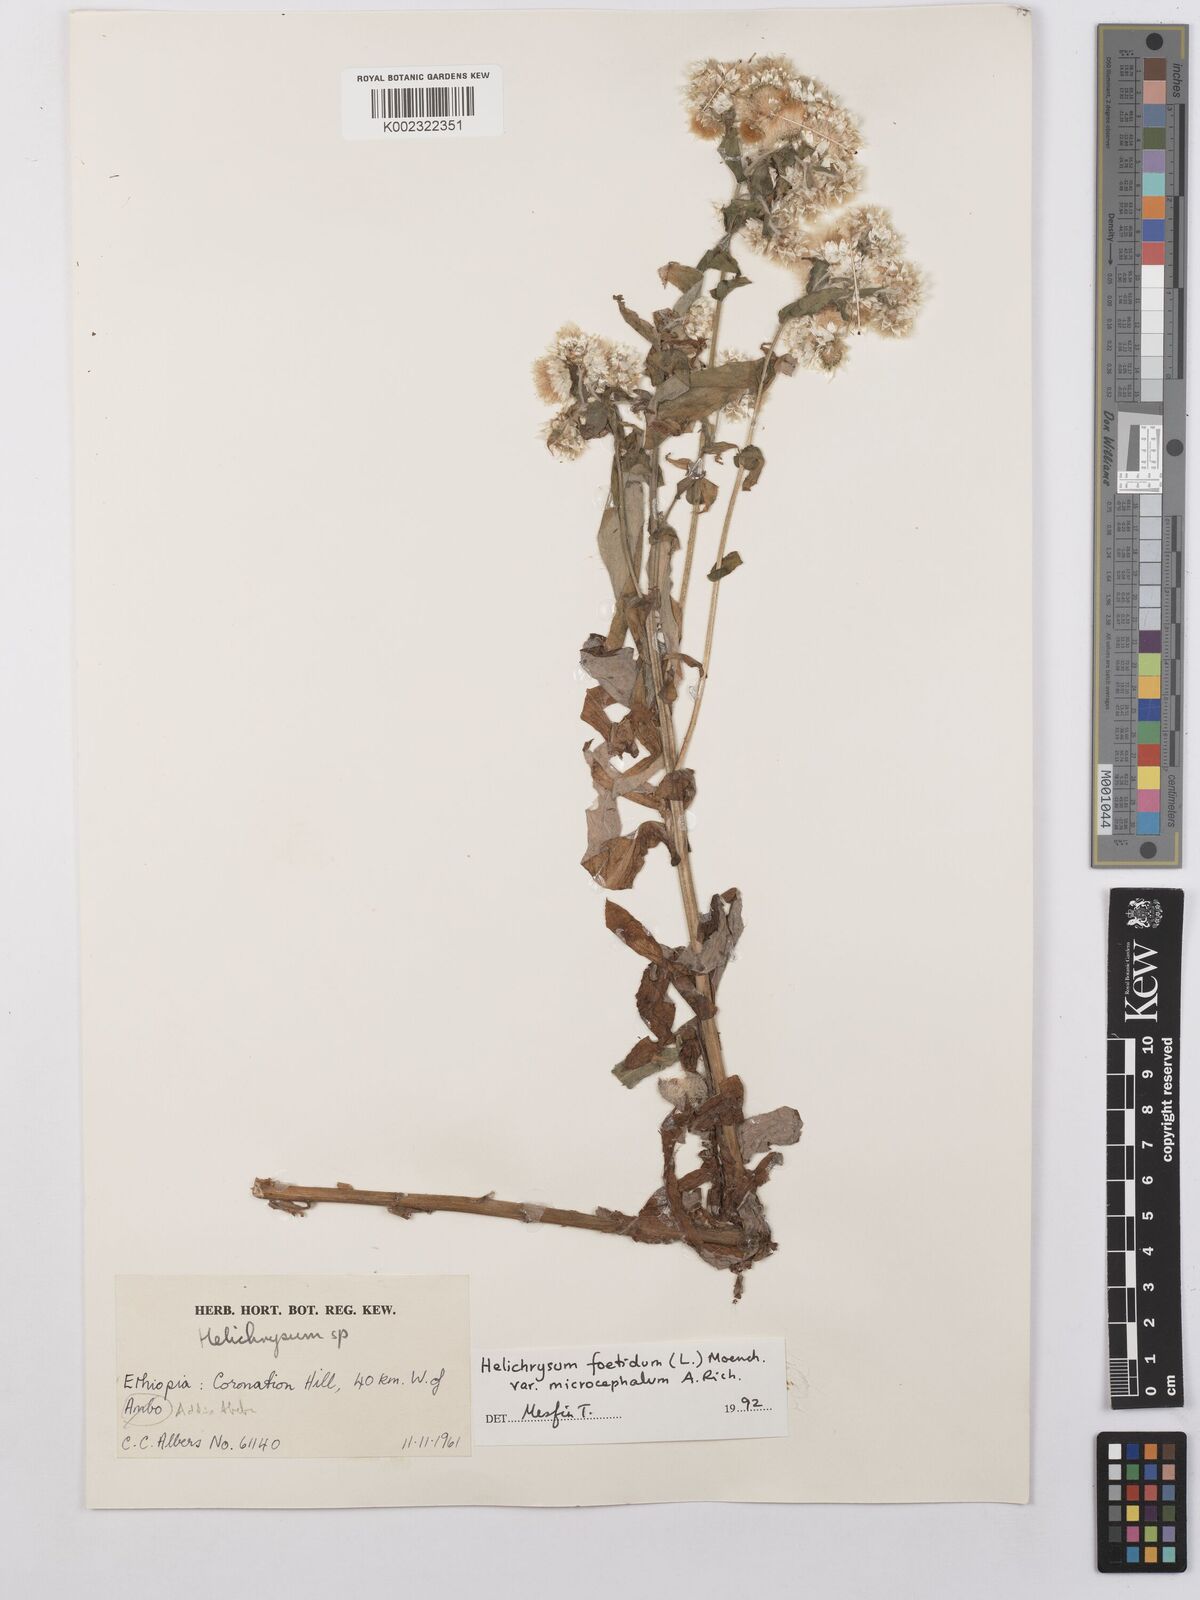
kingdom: Plantae
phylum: Tracheophyta
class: Magnoliopsida
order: Asterales
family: Asteraceae
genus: Helichrysum
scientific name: Helichrysum foetidum
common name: Stinking everlasting
